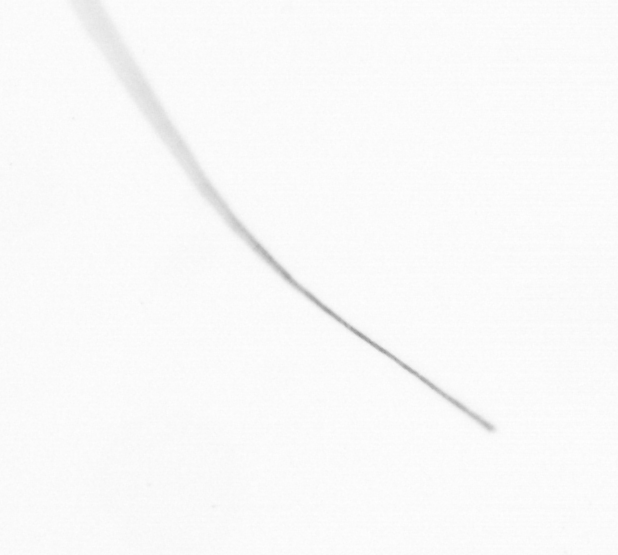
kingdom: Chromista
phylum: Ochrophyta
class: Bacillariophyceae
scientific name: Bacillariophyceae
